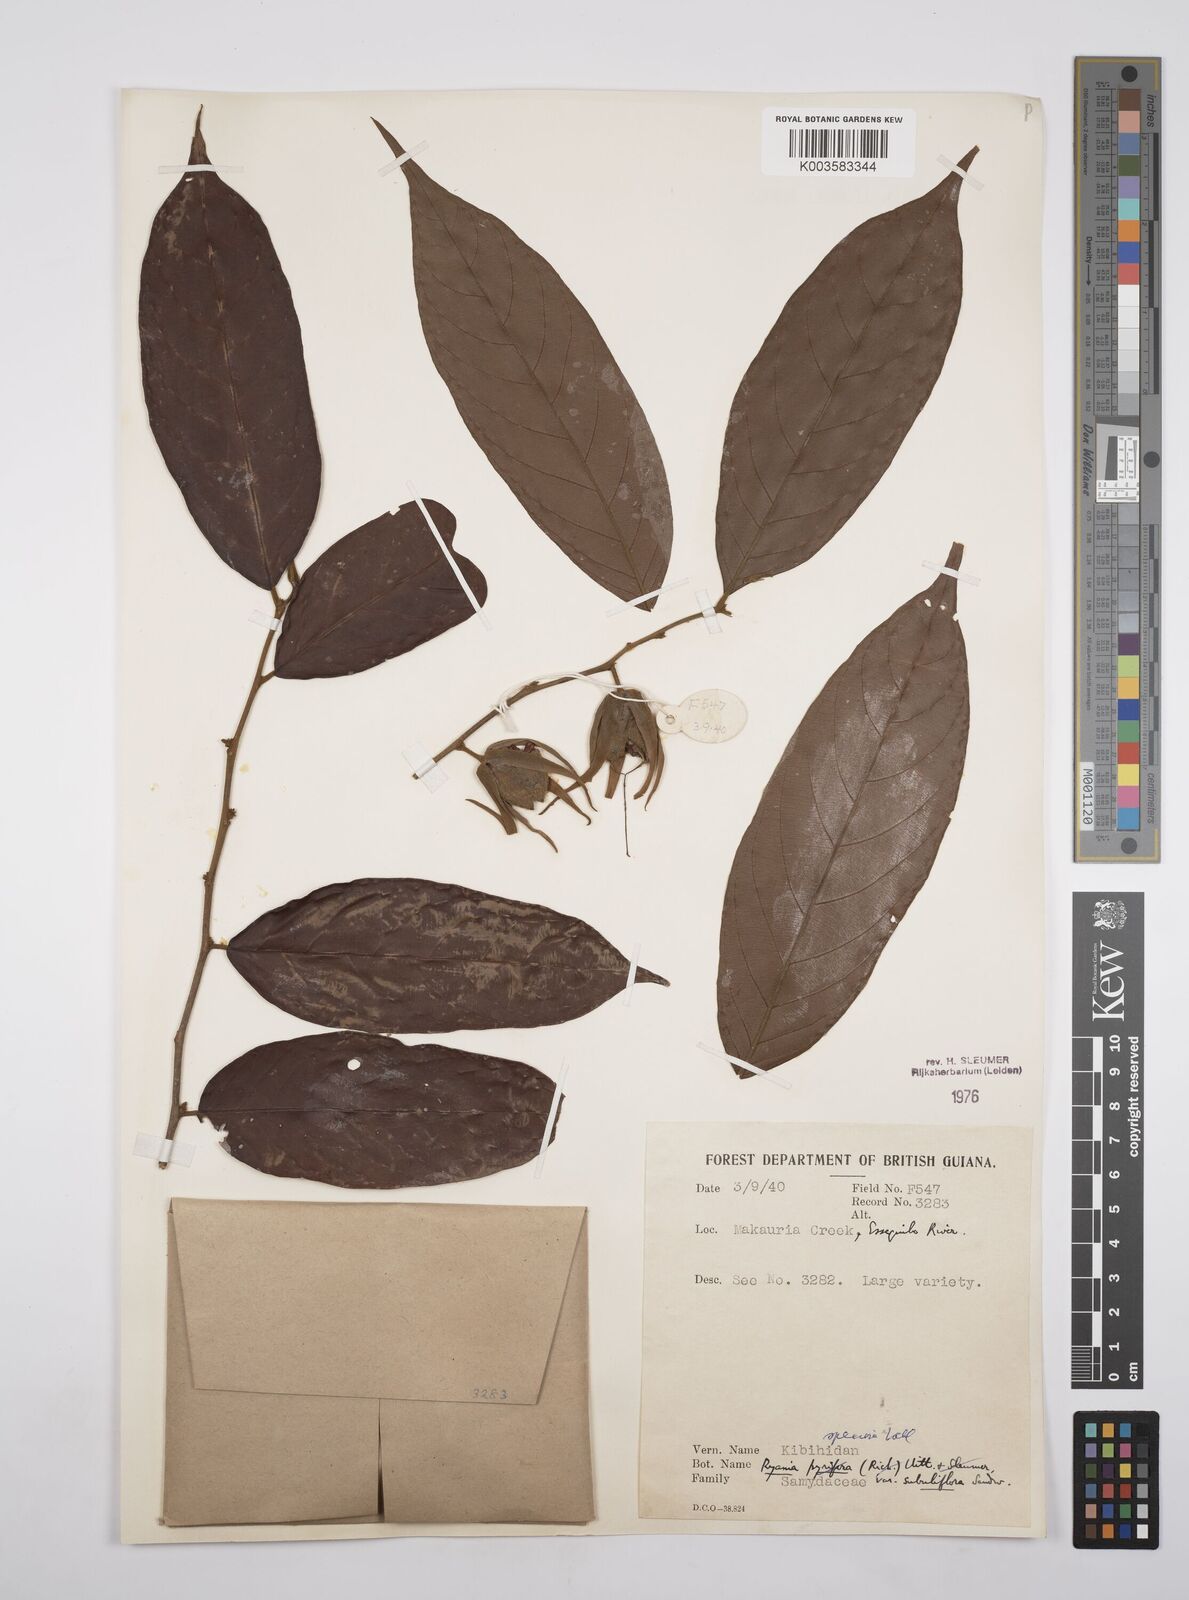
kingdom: Plantae
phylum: Tracheophyta
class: Magnoliopsida
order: Malpighiales
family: Salicaceae
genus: Ryania
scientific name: Ryania speciosa
